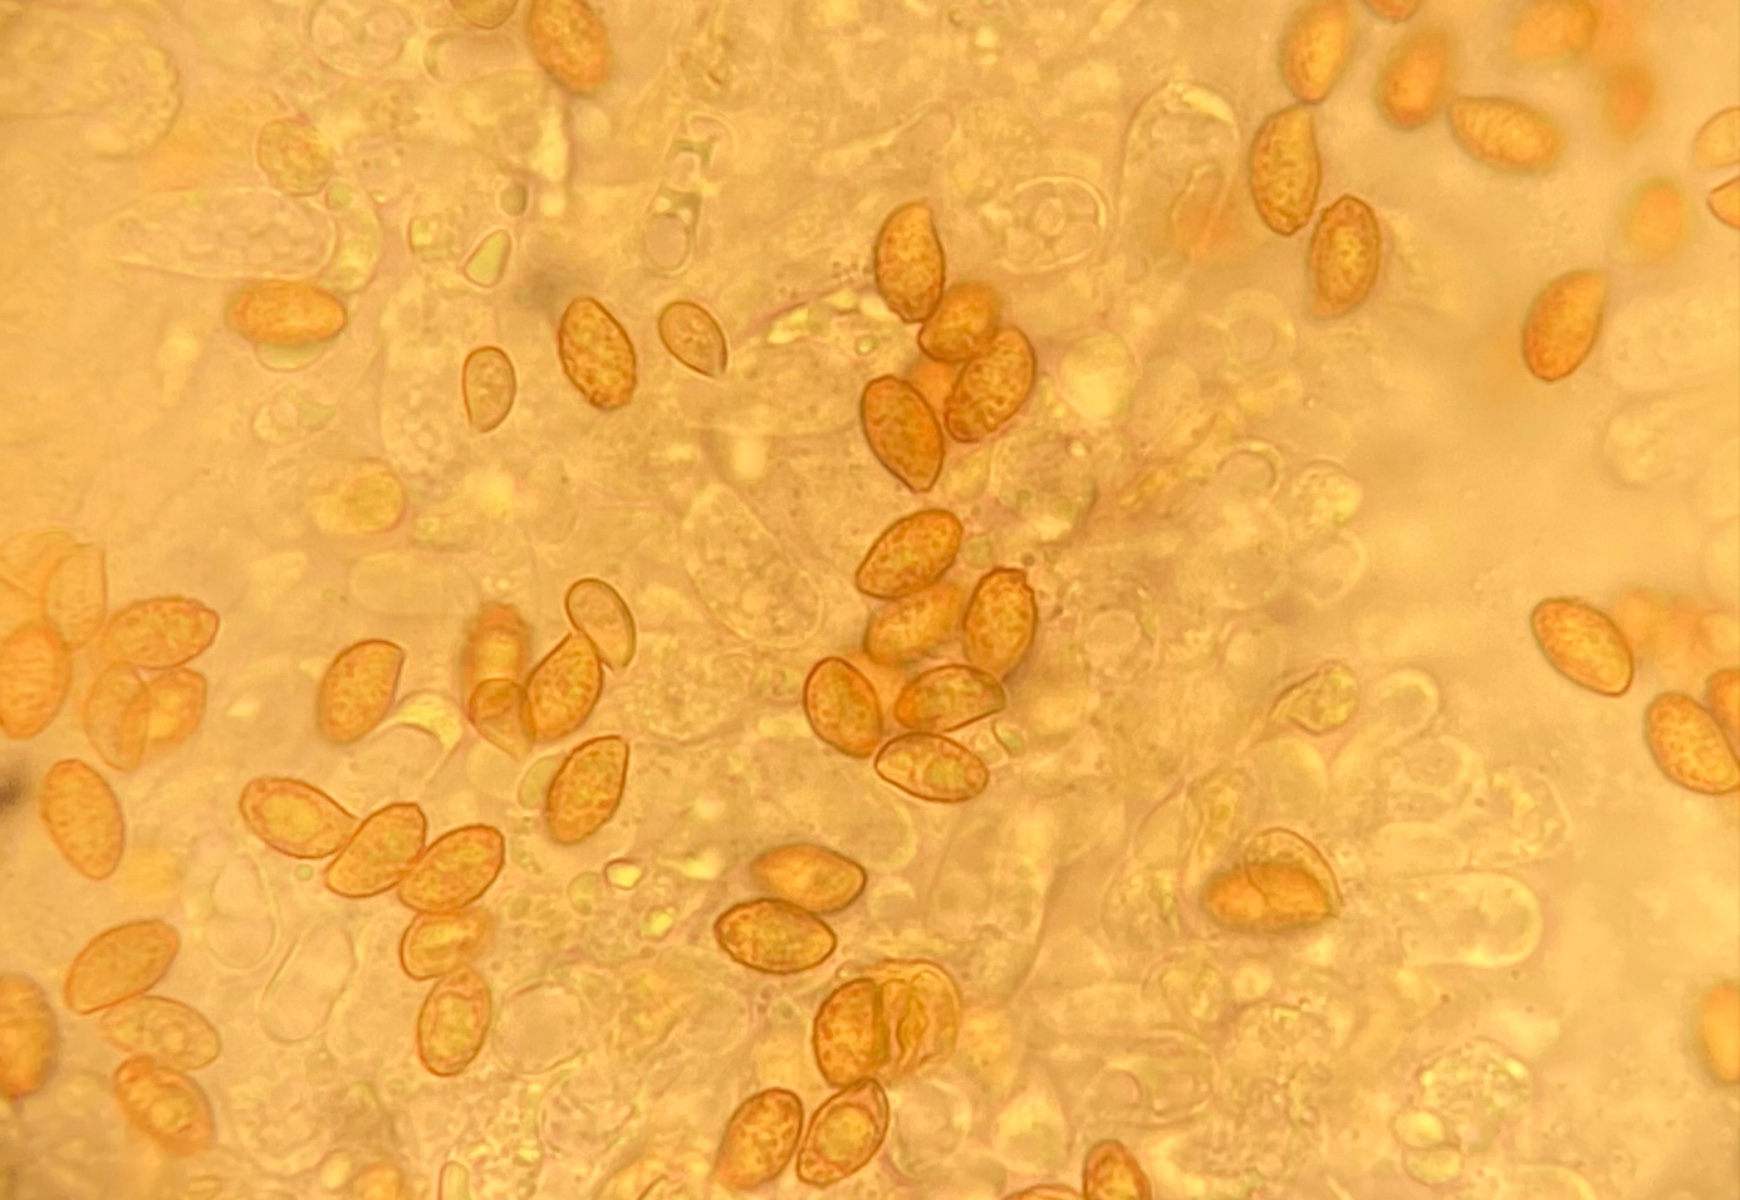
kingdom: Fungi
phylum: Basidiomycota
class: Agaricomycetes
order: Agaricales
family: Cortinariaceae
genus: Cortinarius
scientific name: Cortinarius incisior
